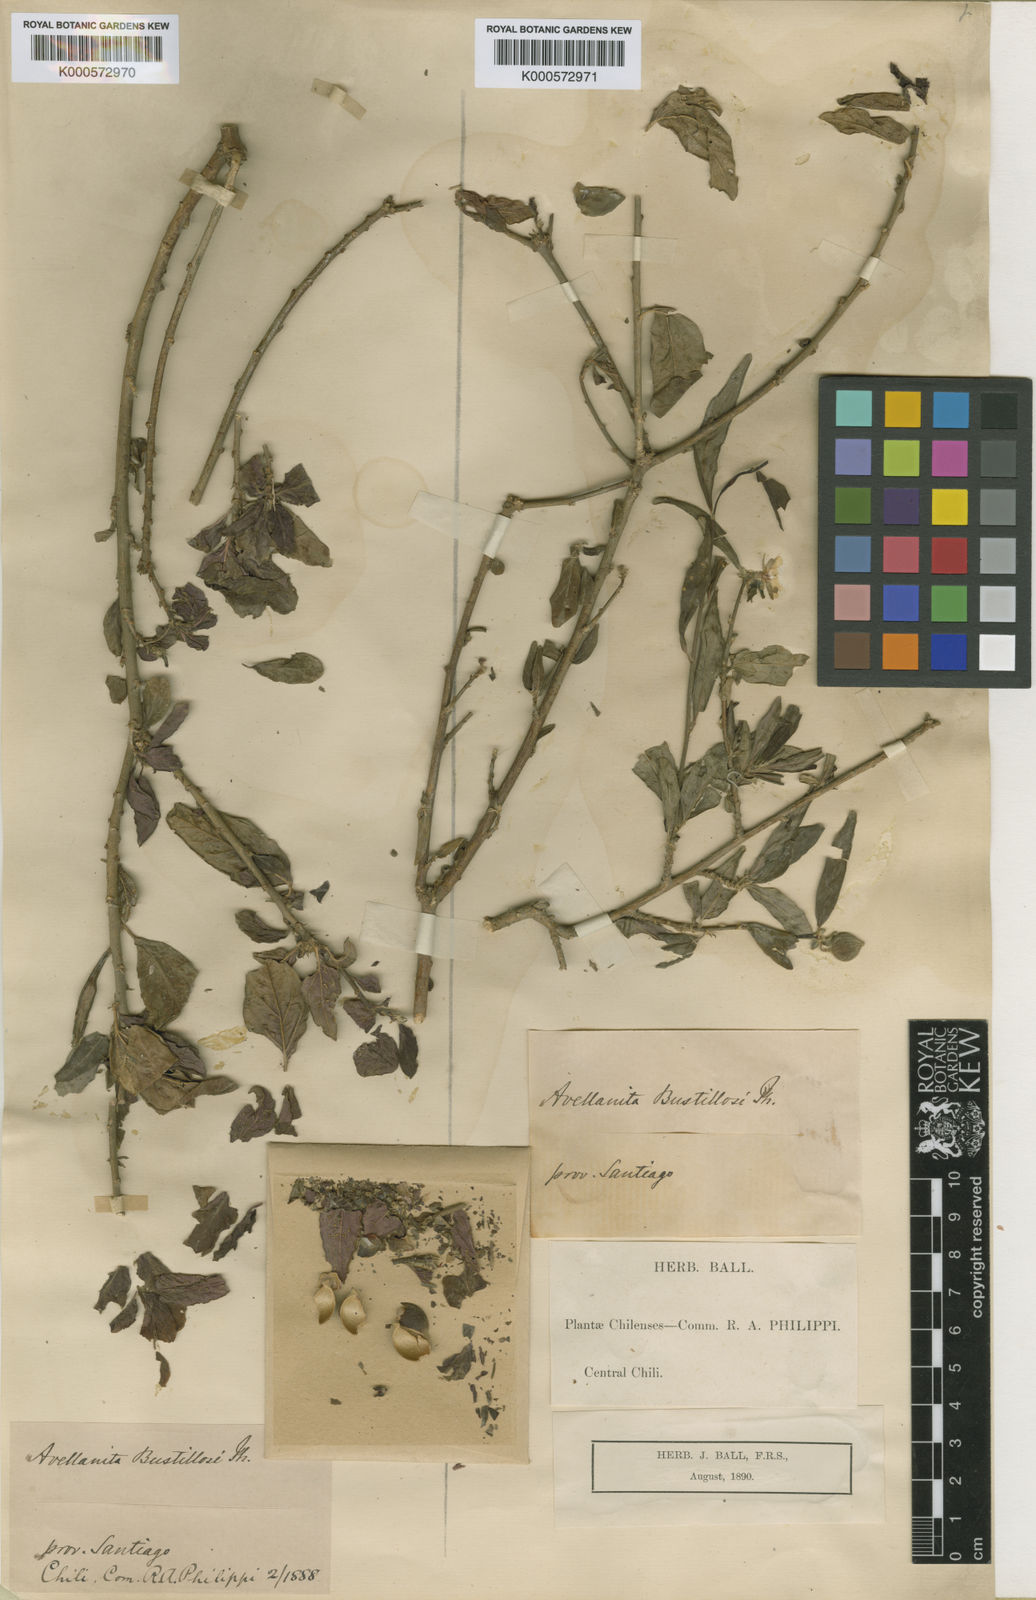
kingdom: Plantae
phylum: Tracheophyta
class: Magnoliopsida
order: Malpighiales
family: Euphorbiaceae
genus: Avellanita
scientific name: Avellanita bustillosii
